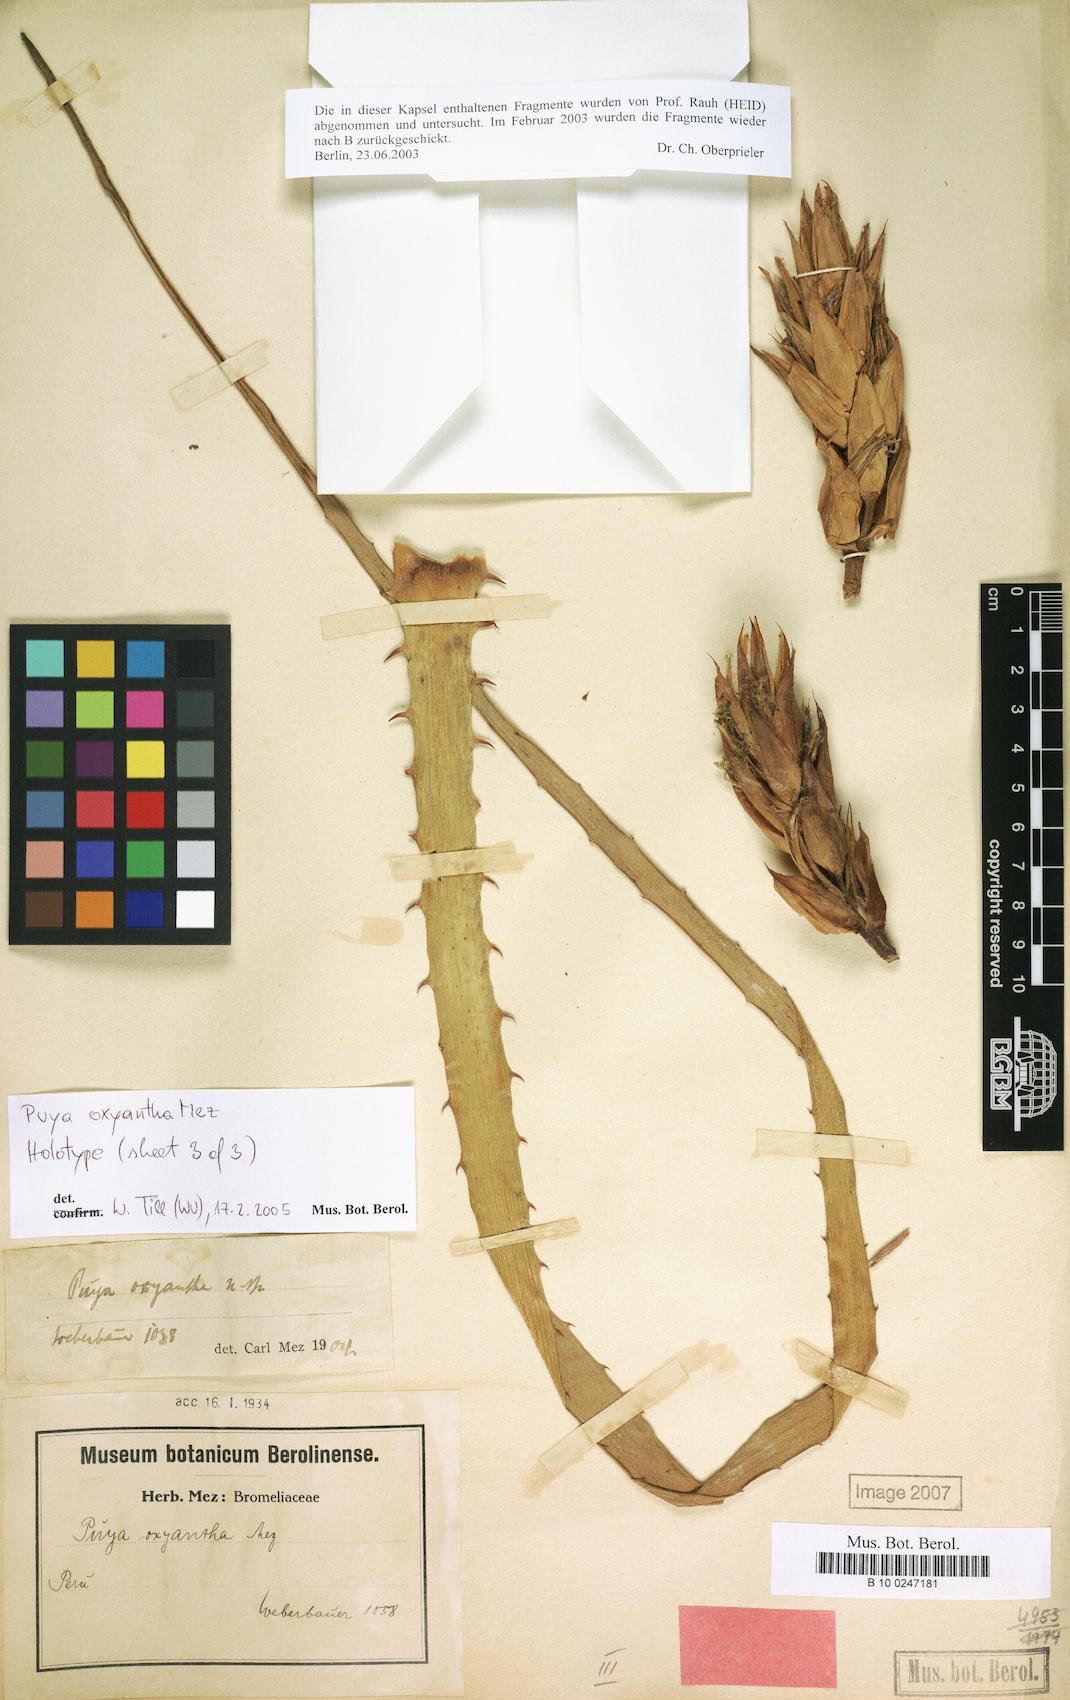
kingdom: Plantae
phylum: Tracheophyta
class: Liliopsida
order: Poales
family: Bromeliaceae
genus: Puya
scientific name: Puya oxyantha
